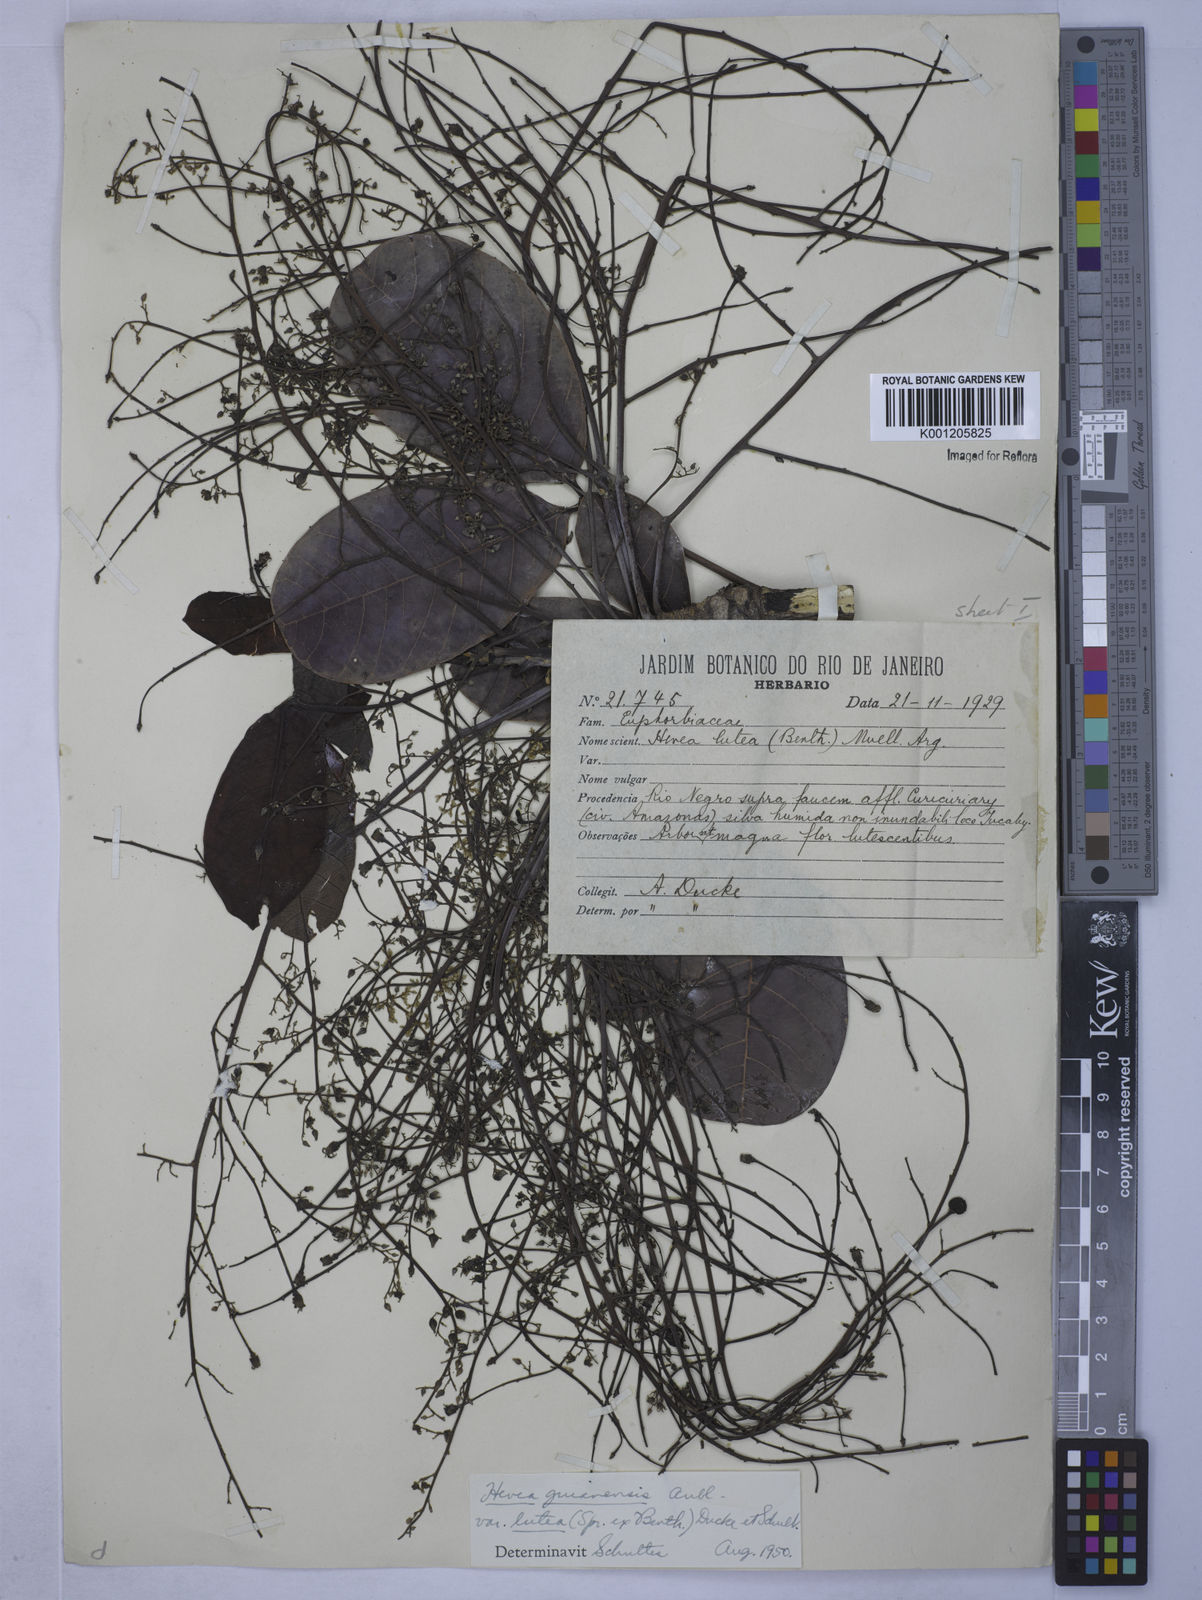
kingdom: Plantae
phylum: Tracheophyta
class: Magnoliopsida
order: Malpighiales
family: Euphorbiaceae
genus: Hevea
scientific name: Hevea guianensis
